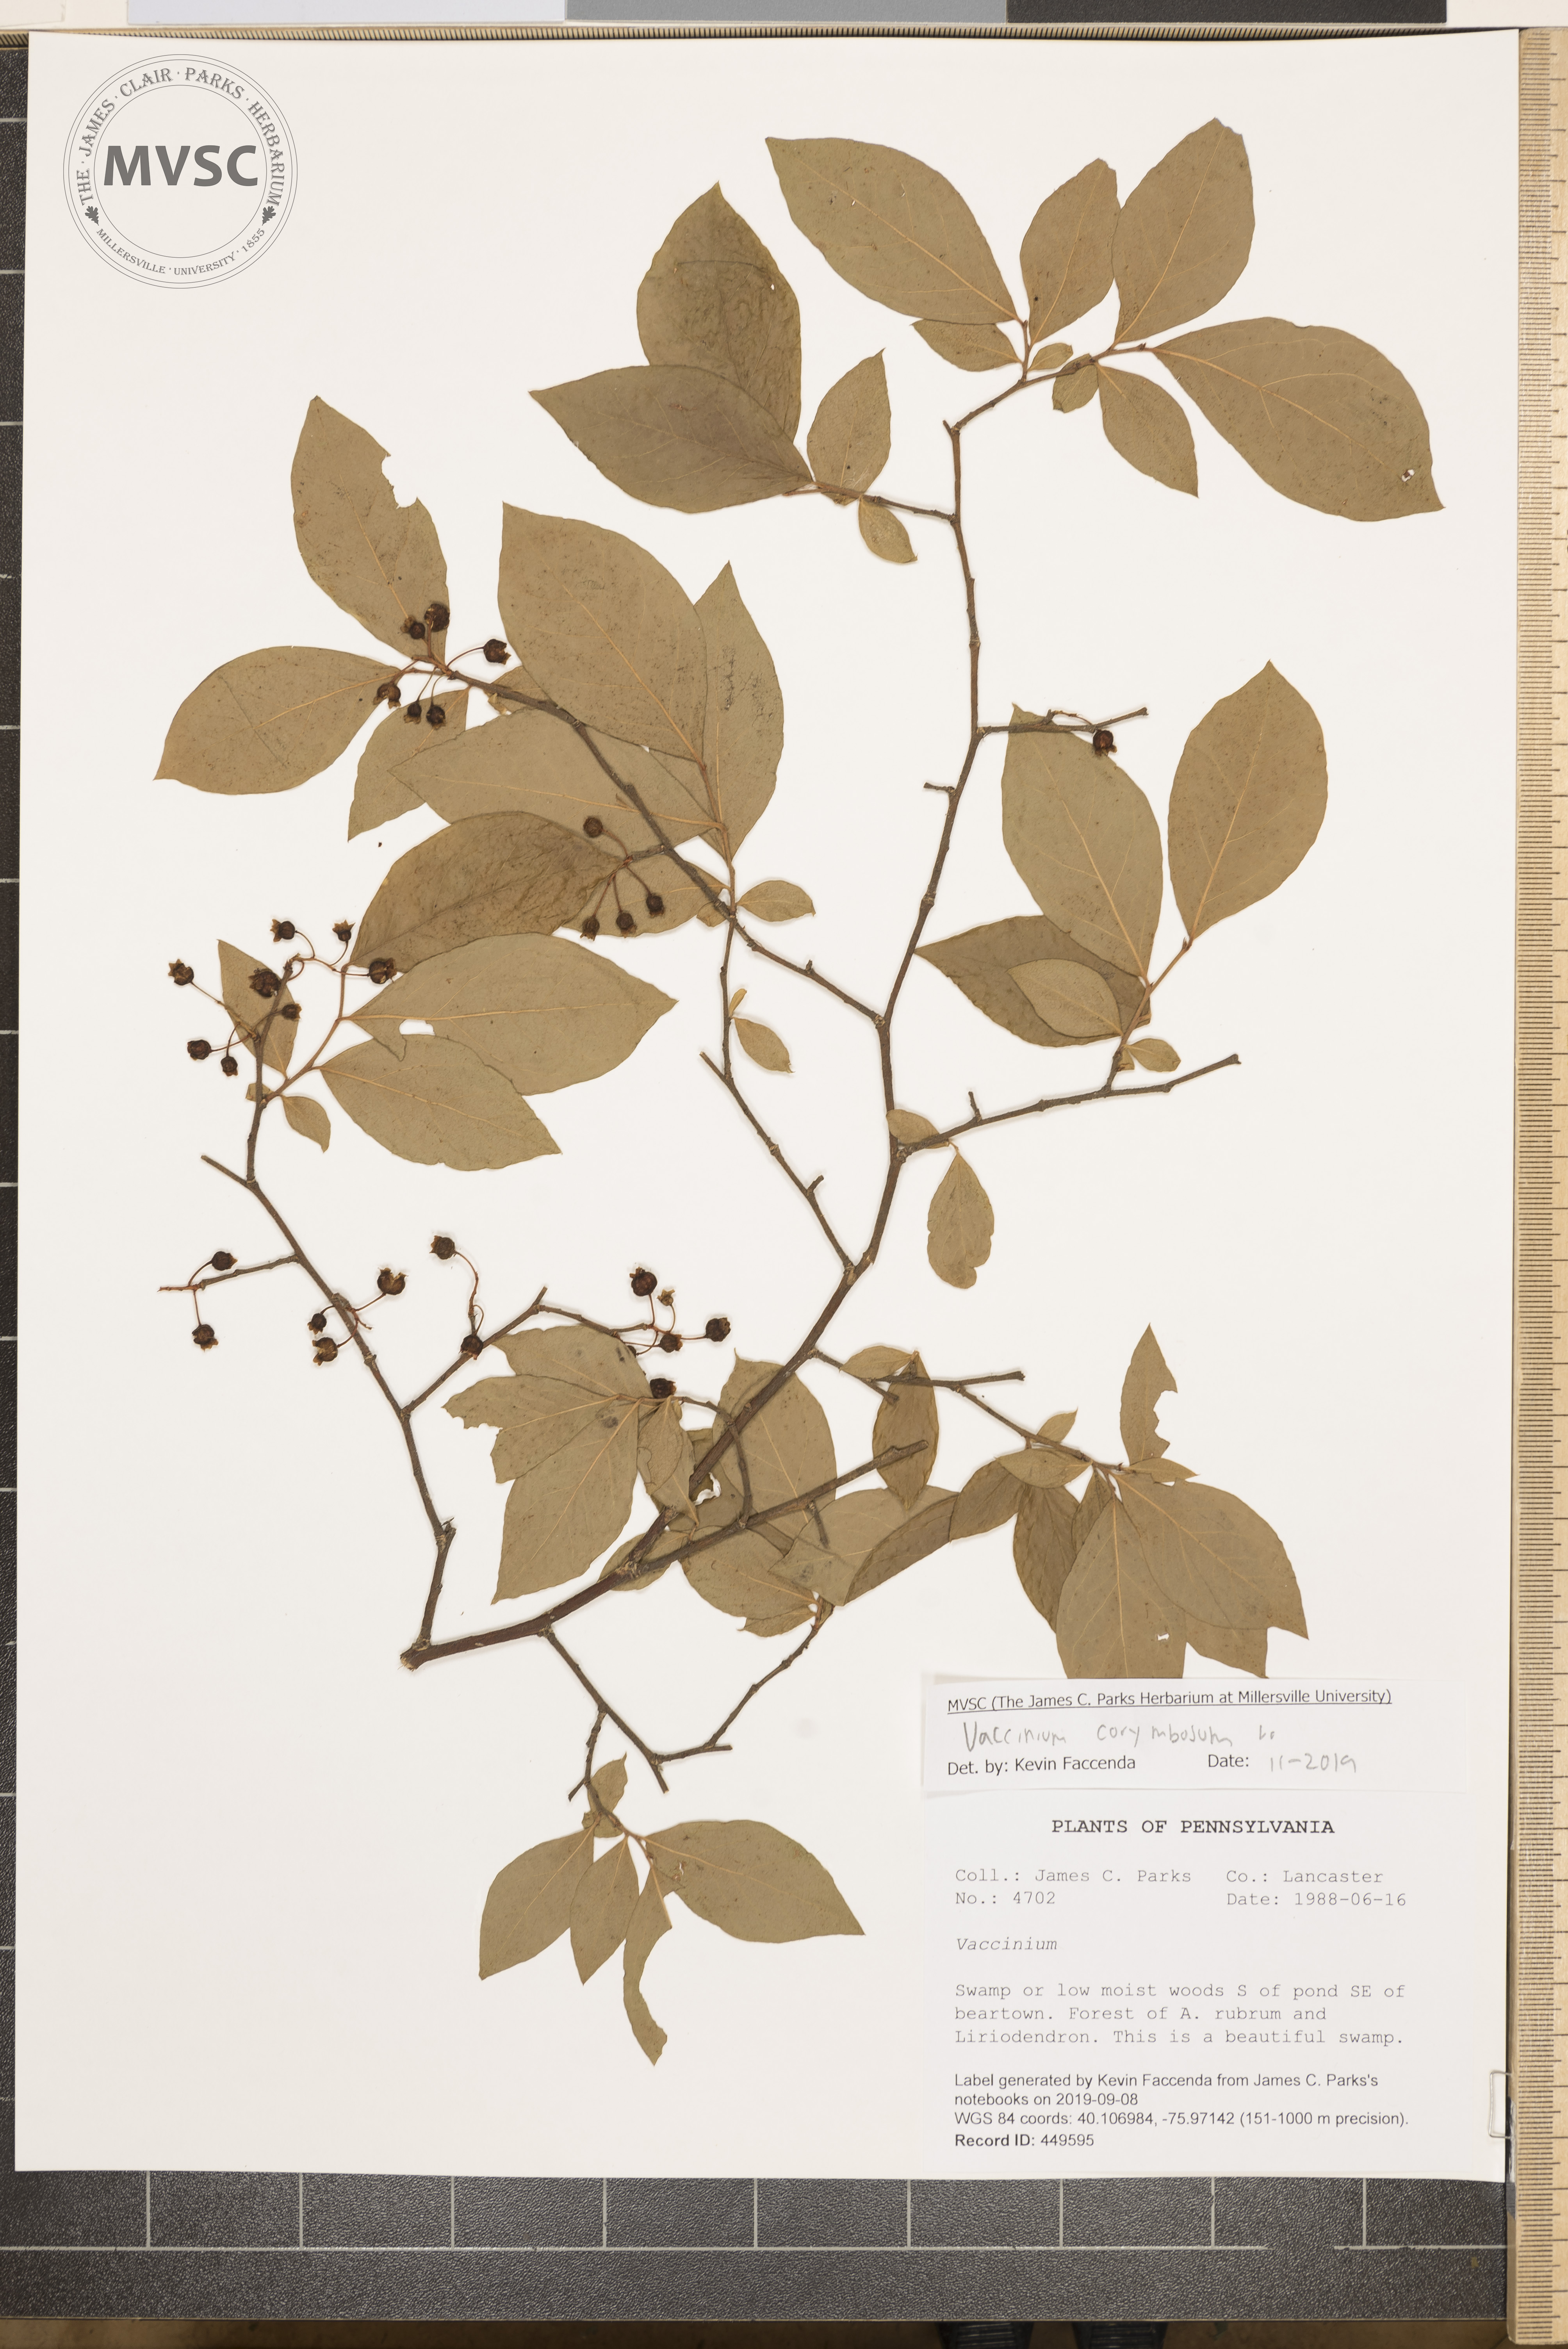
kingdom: Plantae
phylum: Tracheophyta
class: Magnoliopsida
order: Ericales
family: Ericaceae
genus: Vaccinium
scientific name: Vaccinium corymbosum
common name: Blueberry
